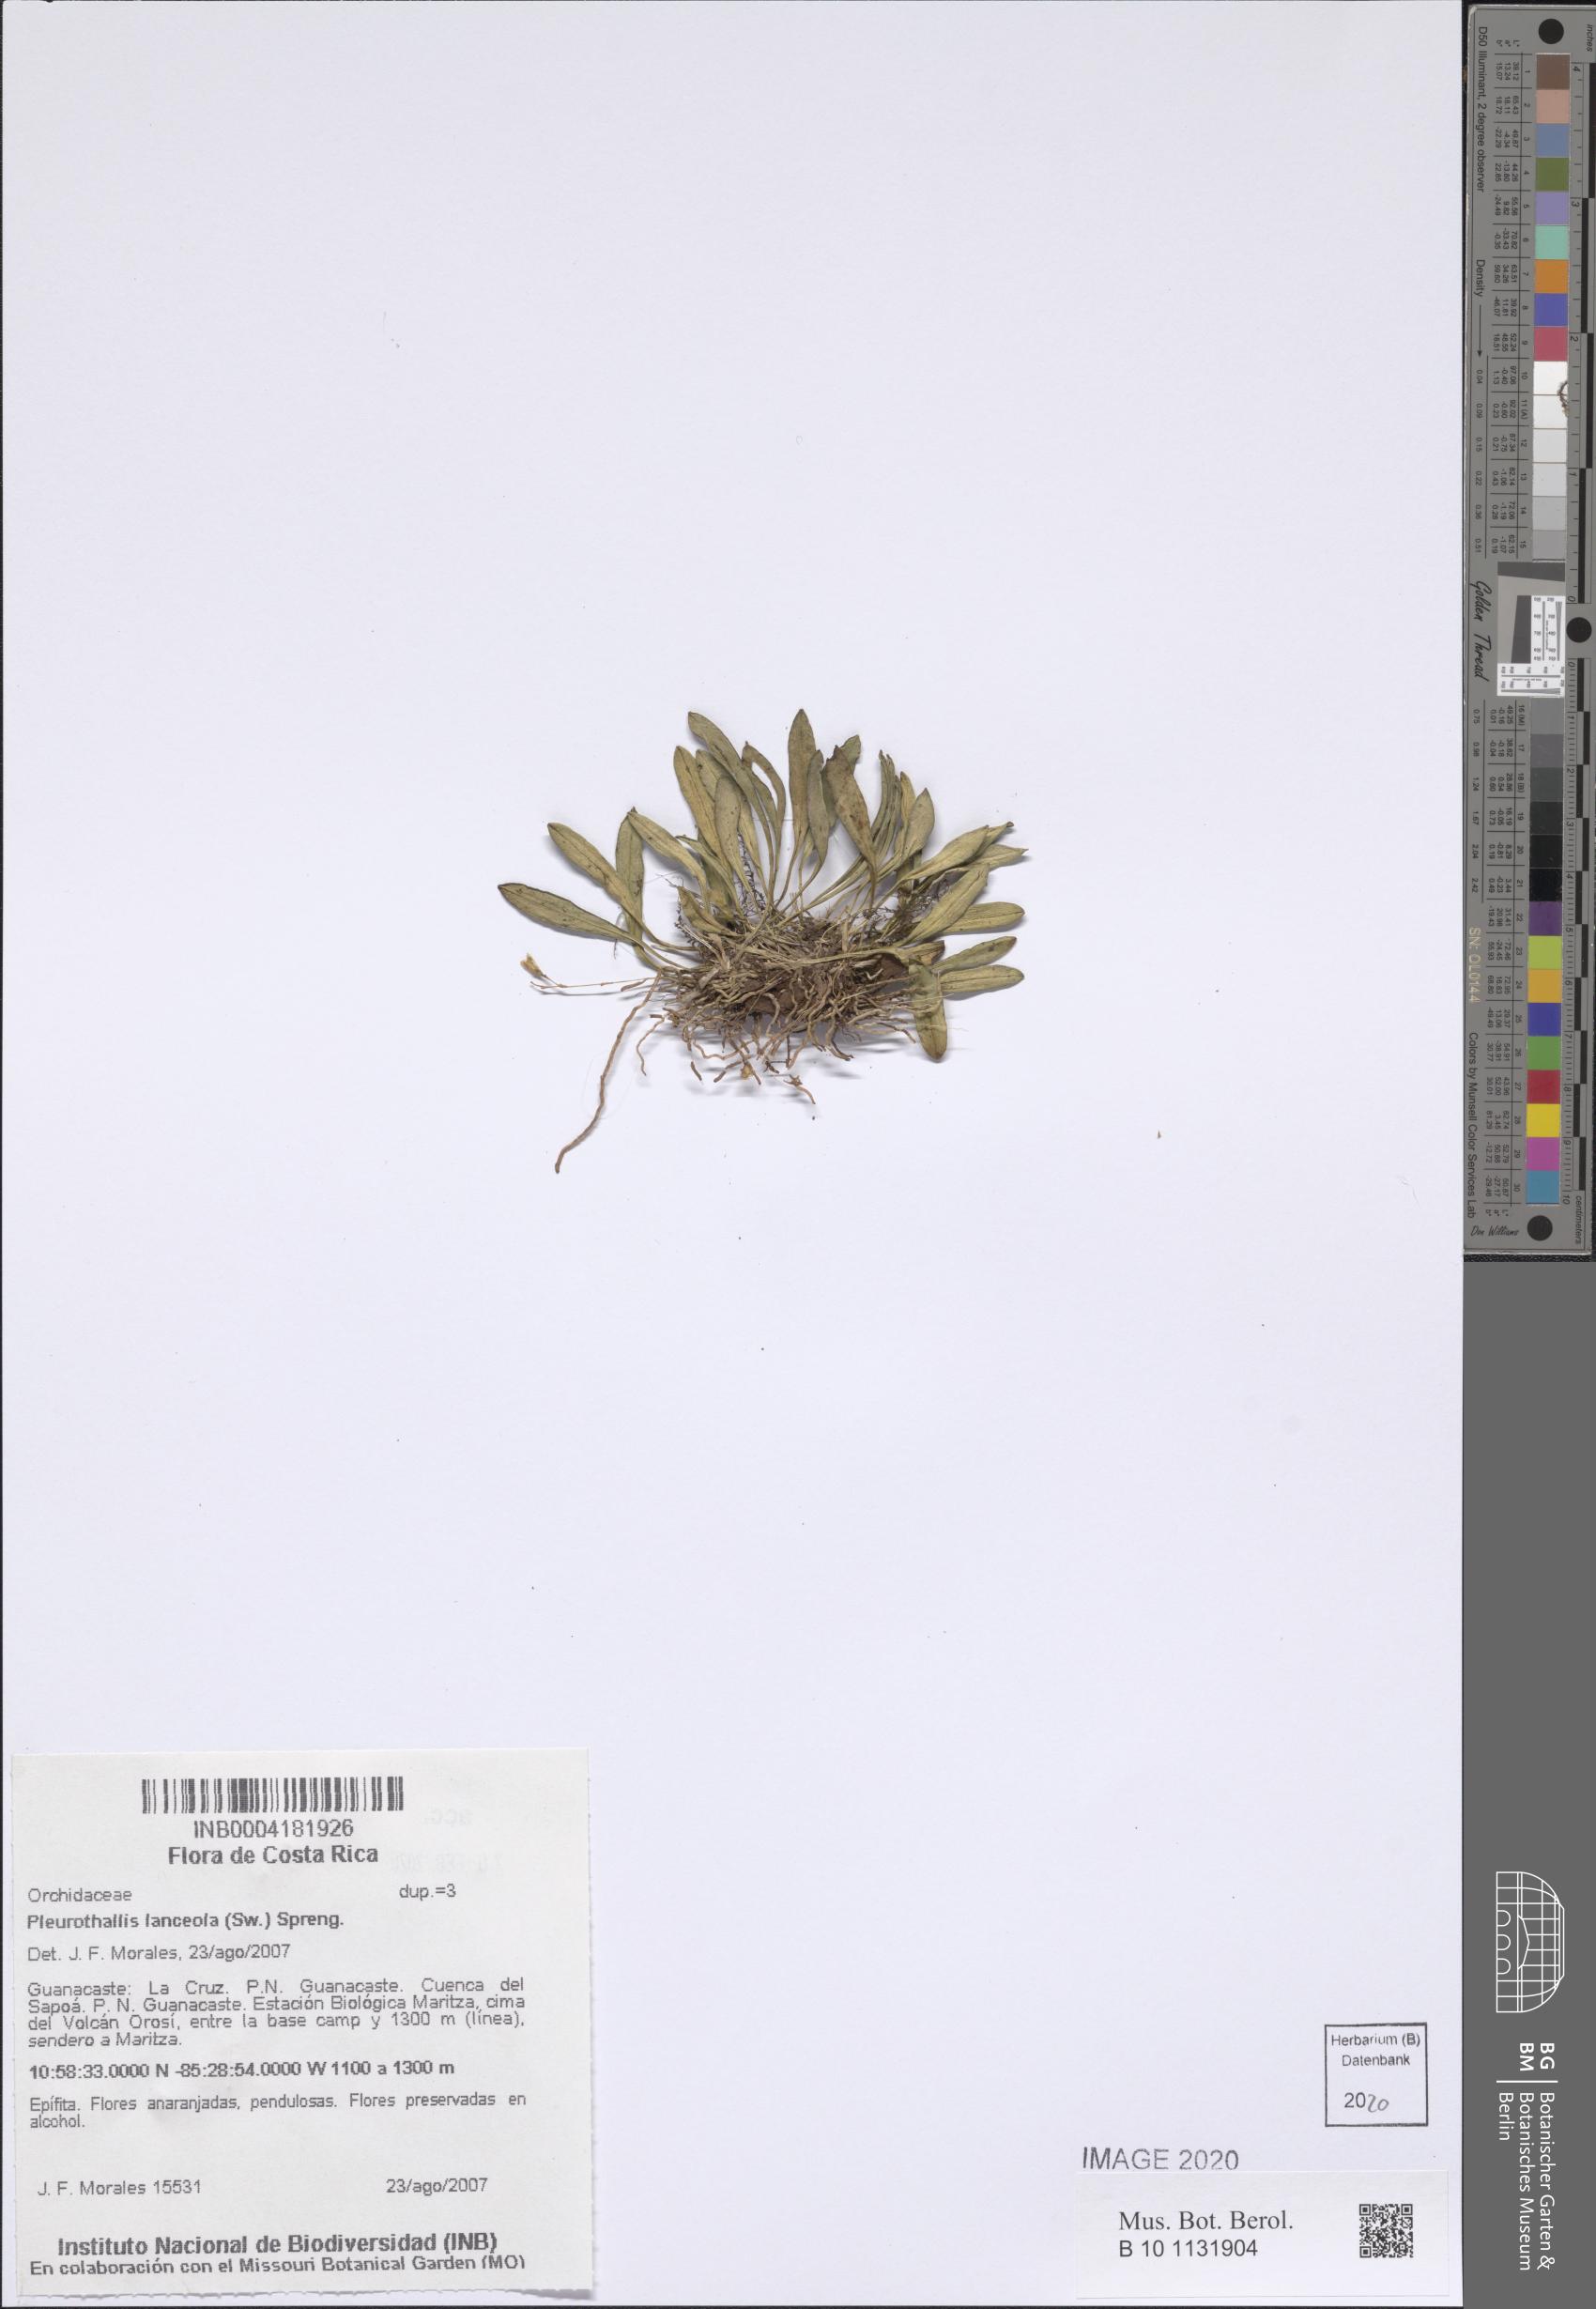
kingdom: Plantae
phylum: Tracheophyta
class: Liliopsida
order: Asparagales
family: Orchidaceae
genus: Specklinia
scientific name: Specklinia lanceola
